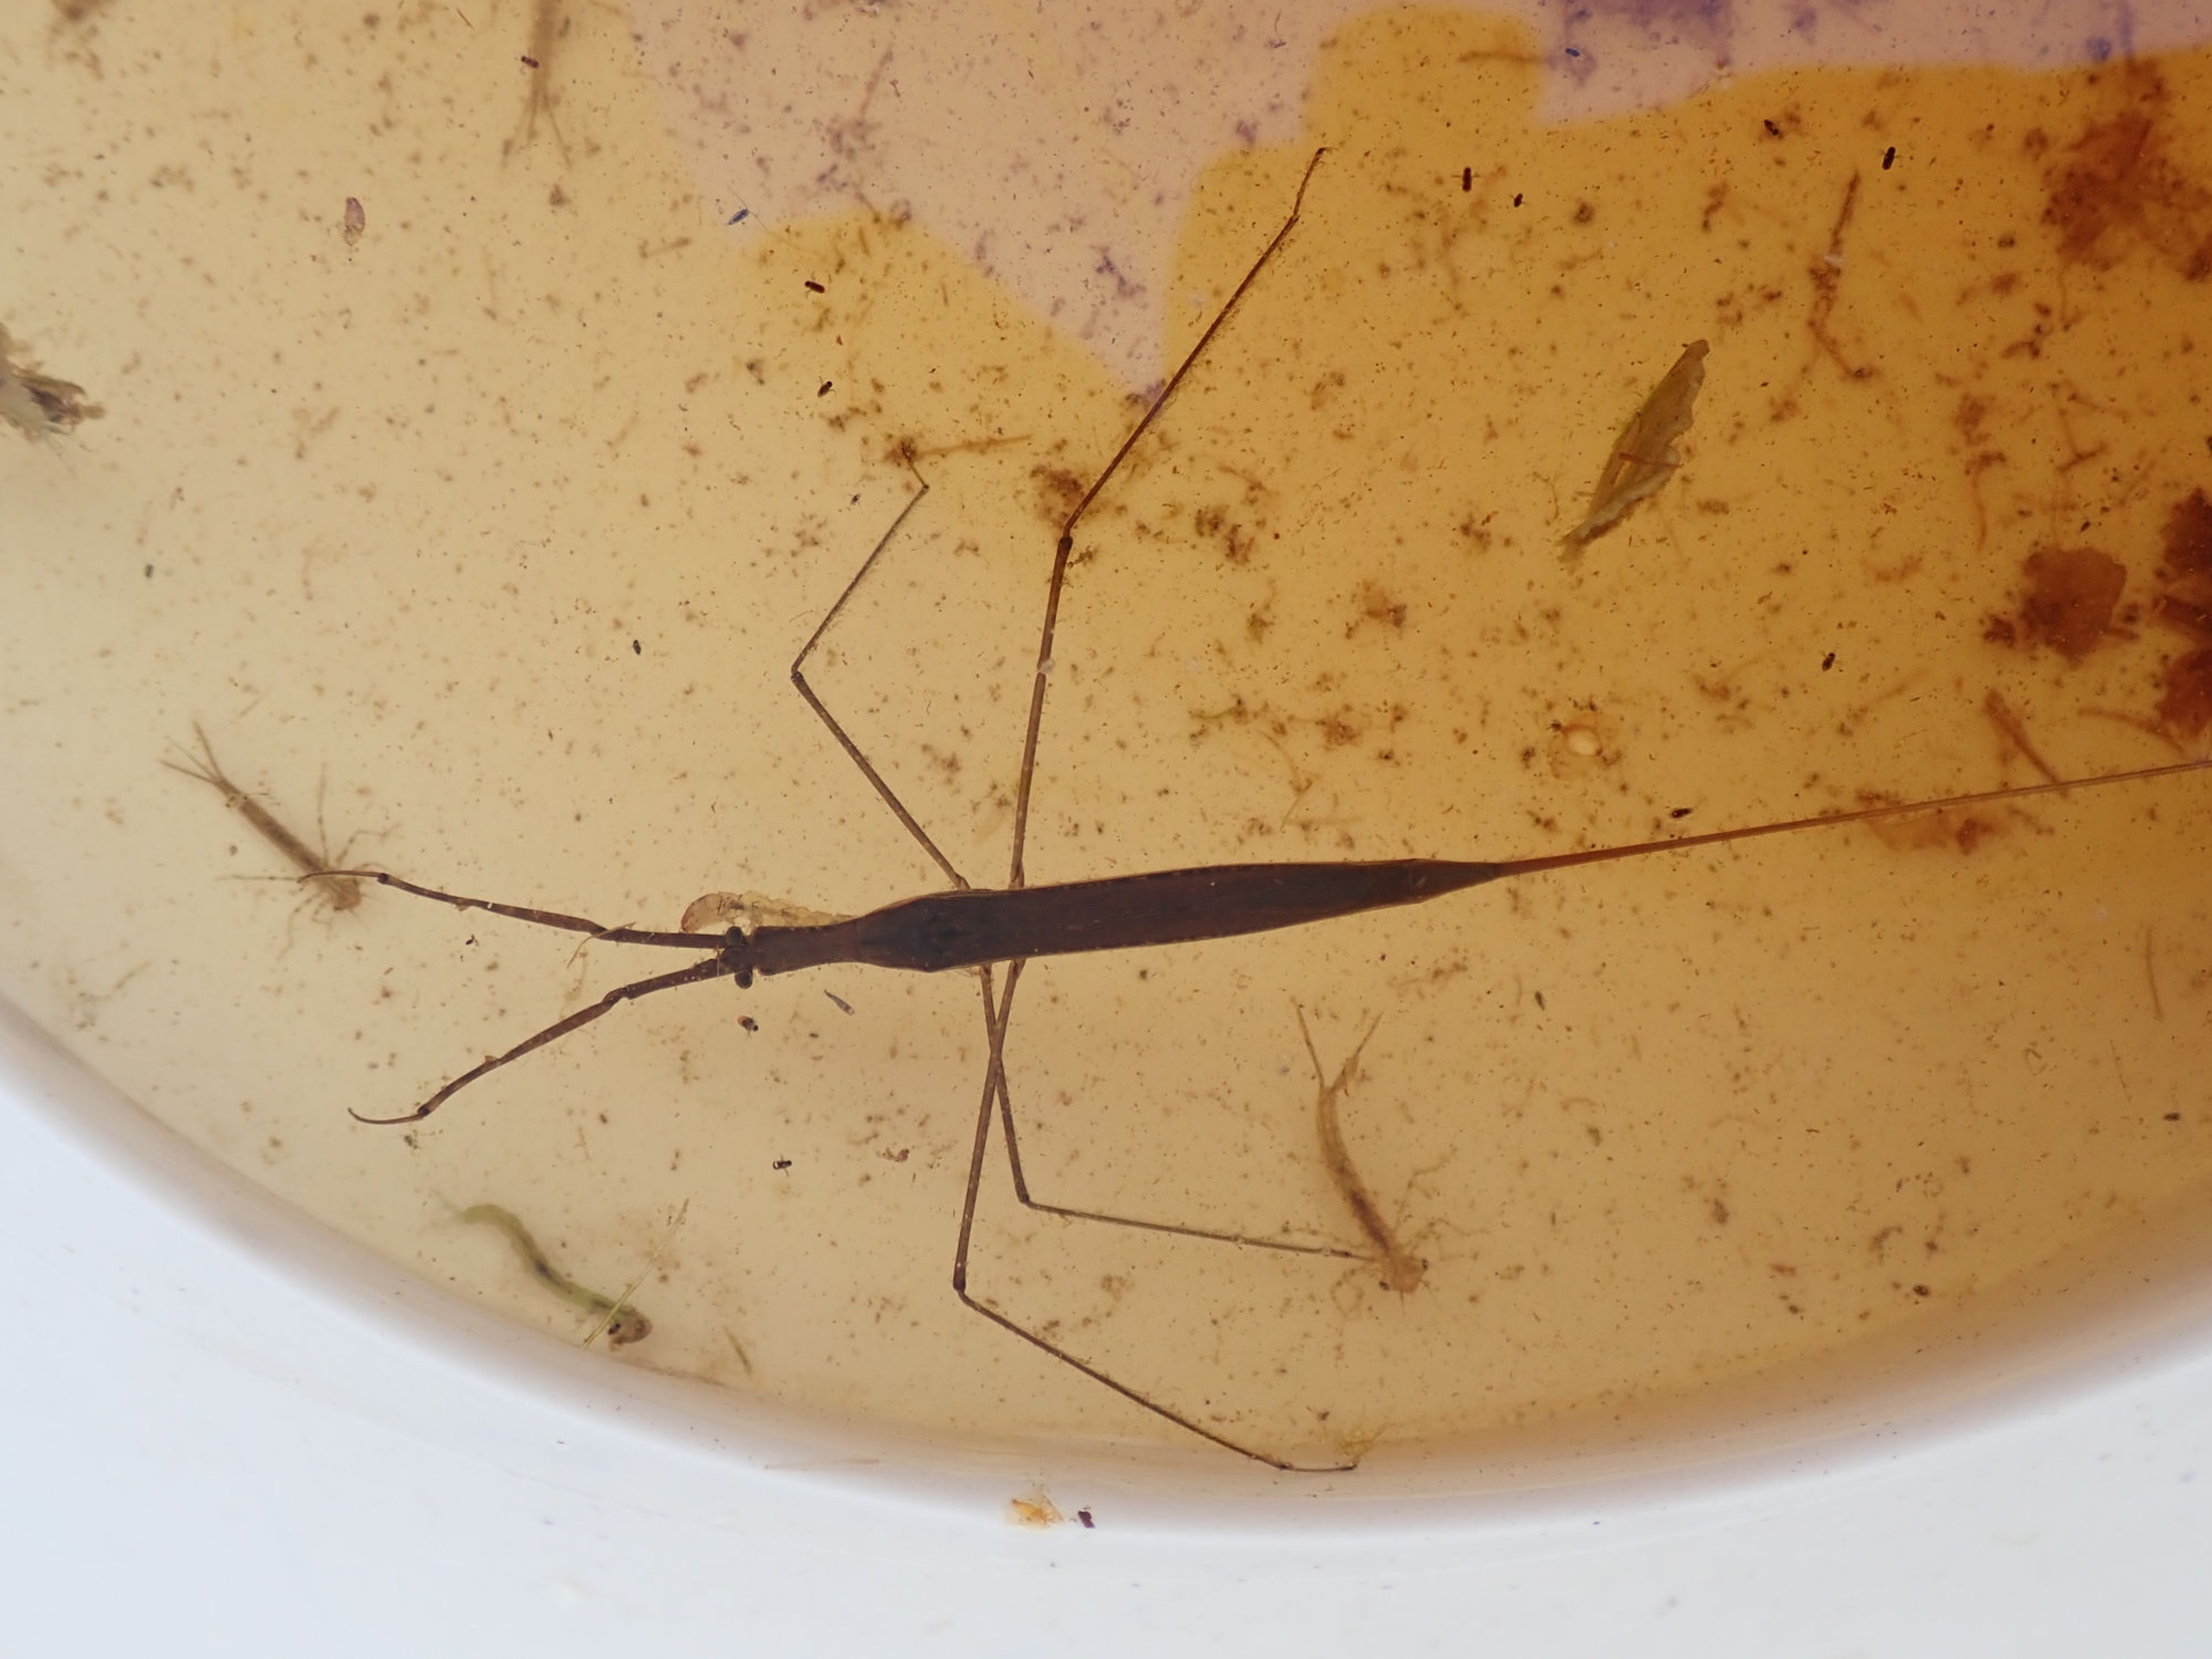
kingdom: Animalia
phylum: Arthropoda
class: Insecta
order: Hemiptera
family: Nepidae
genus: Ranatra
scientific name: Ranatra linearis
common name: Stavtæge
